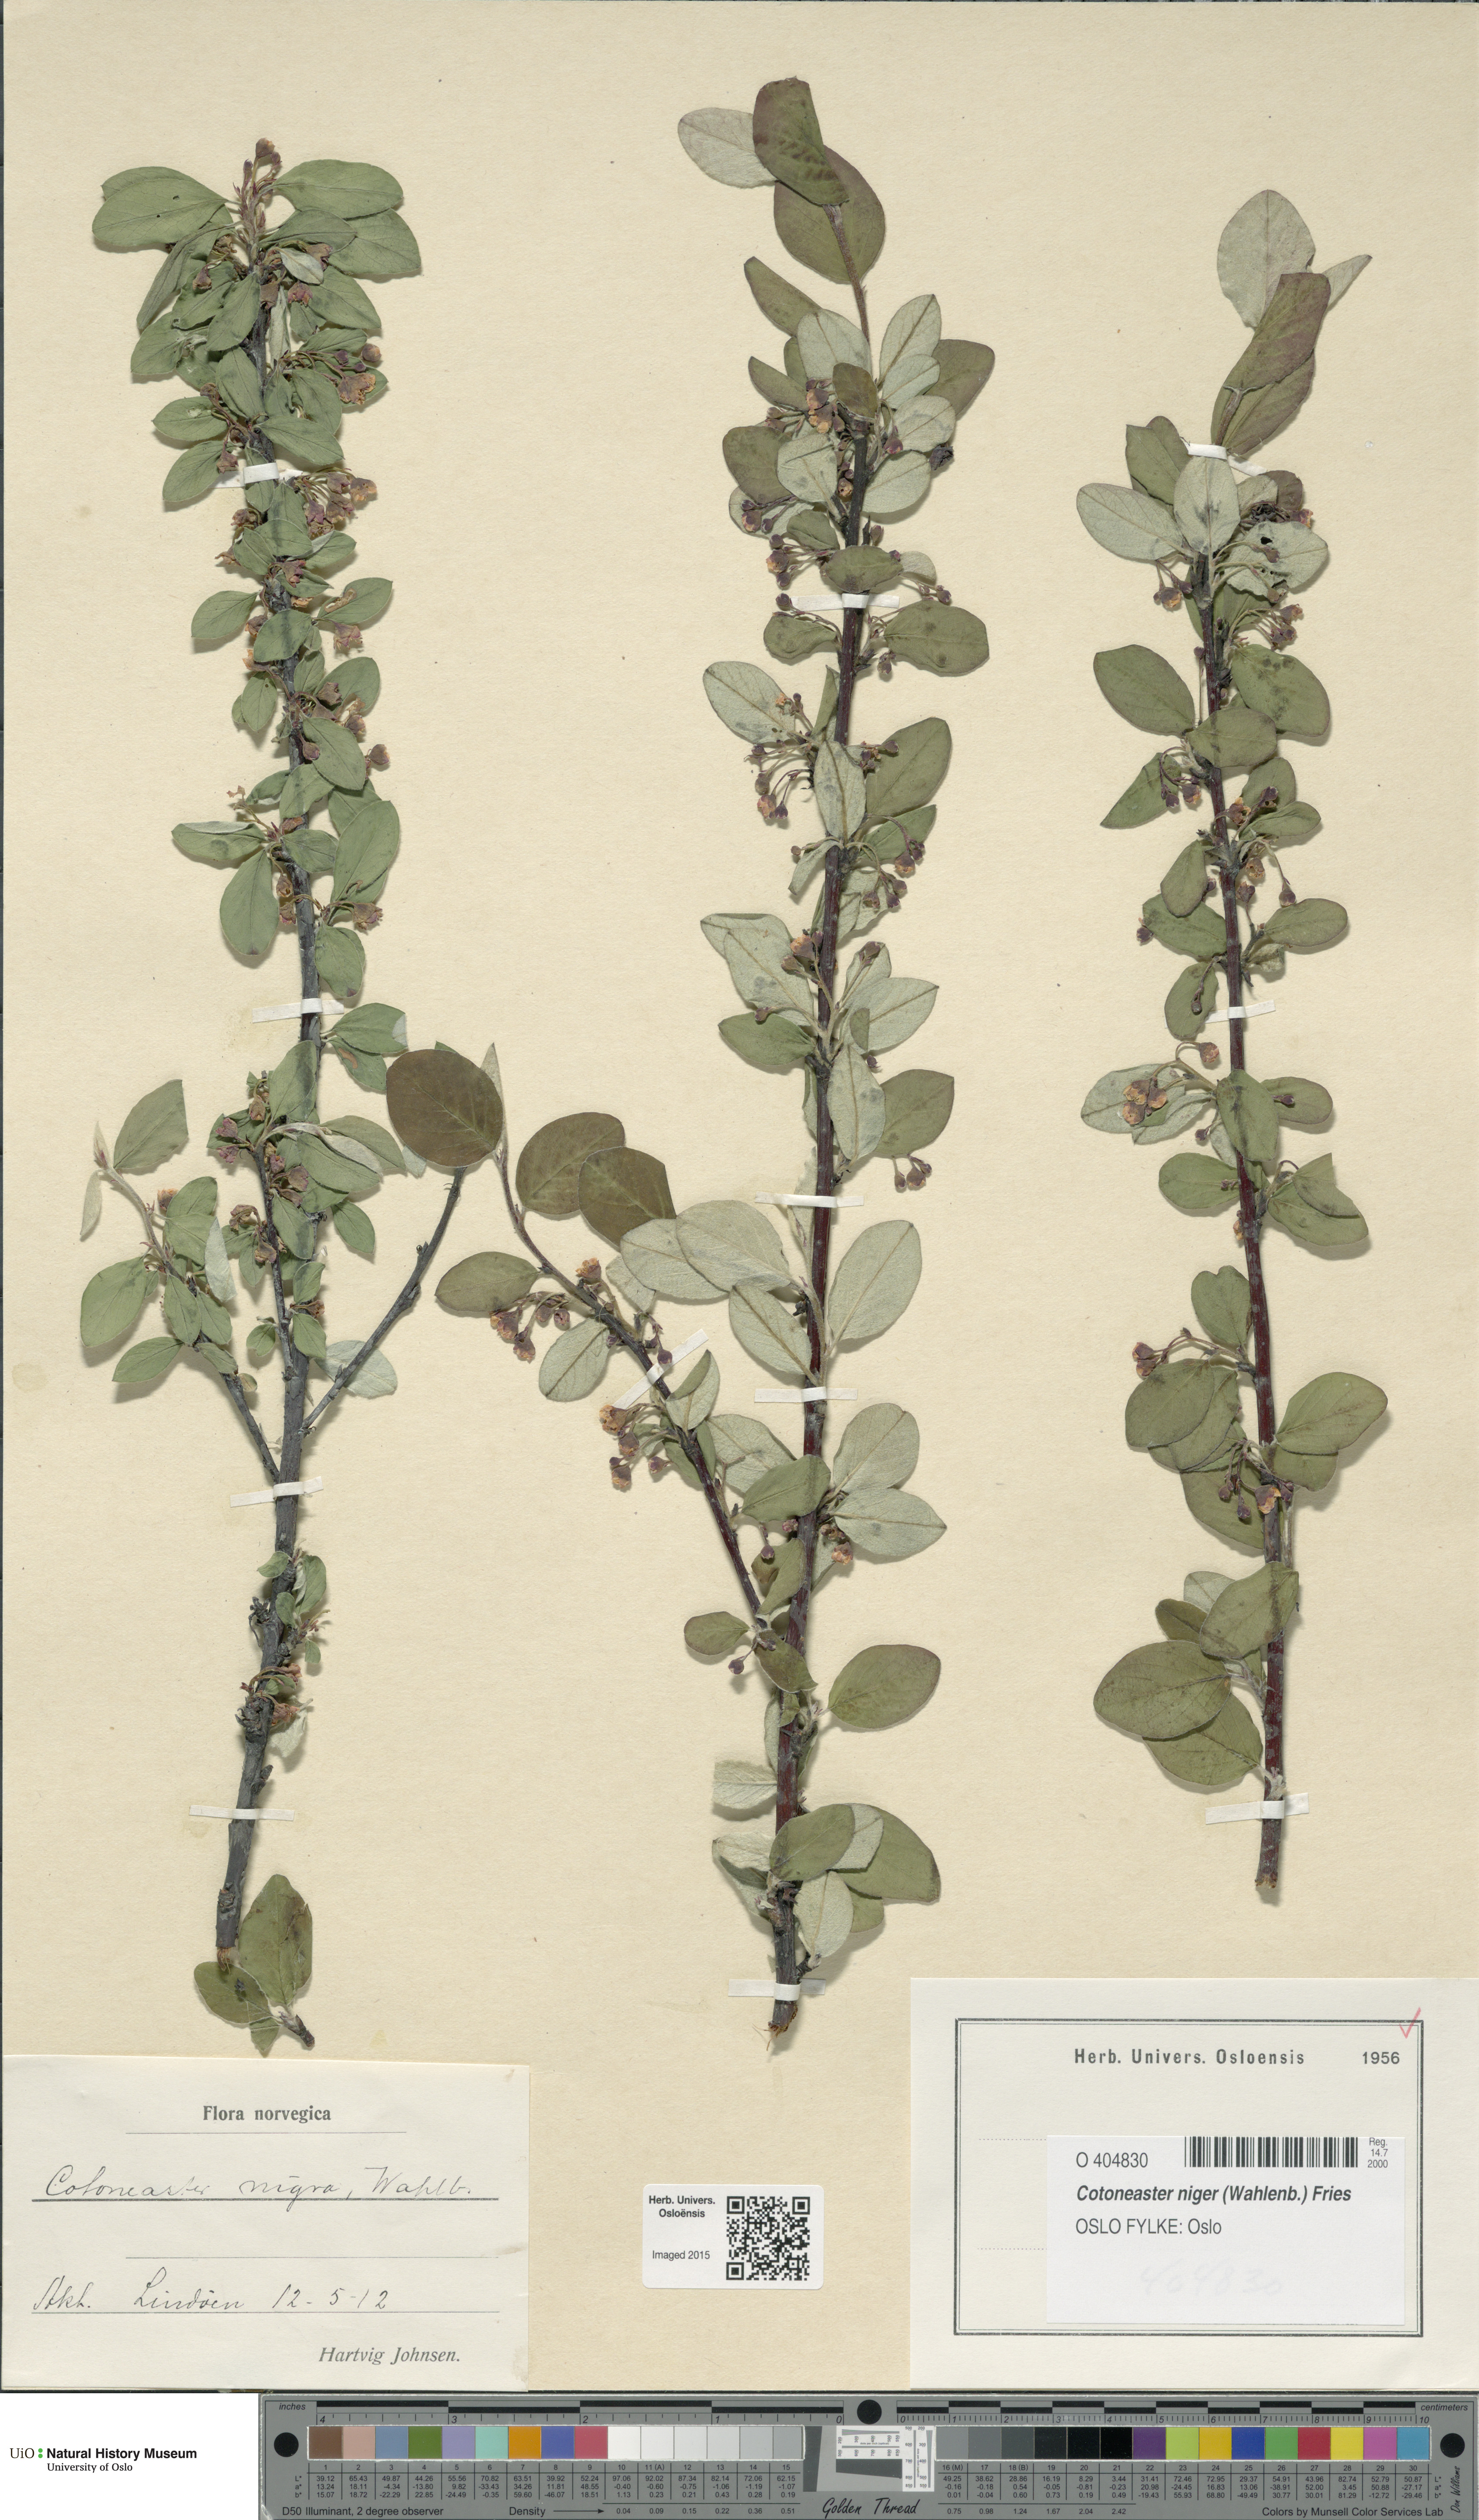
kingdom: Plantae
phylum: Tracheophyta
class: Magnoliopsida
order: Rosales
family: Rosaceae
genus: Cotoneaster
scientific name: Cotoneaster niger
